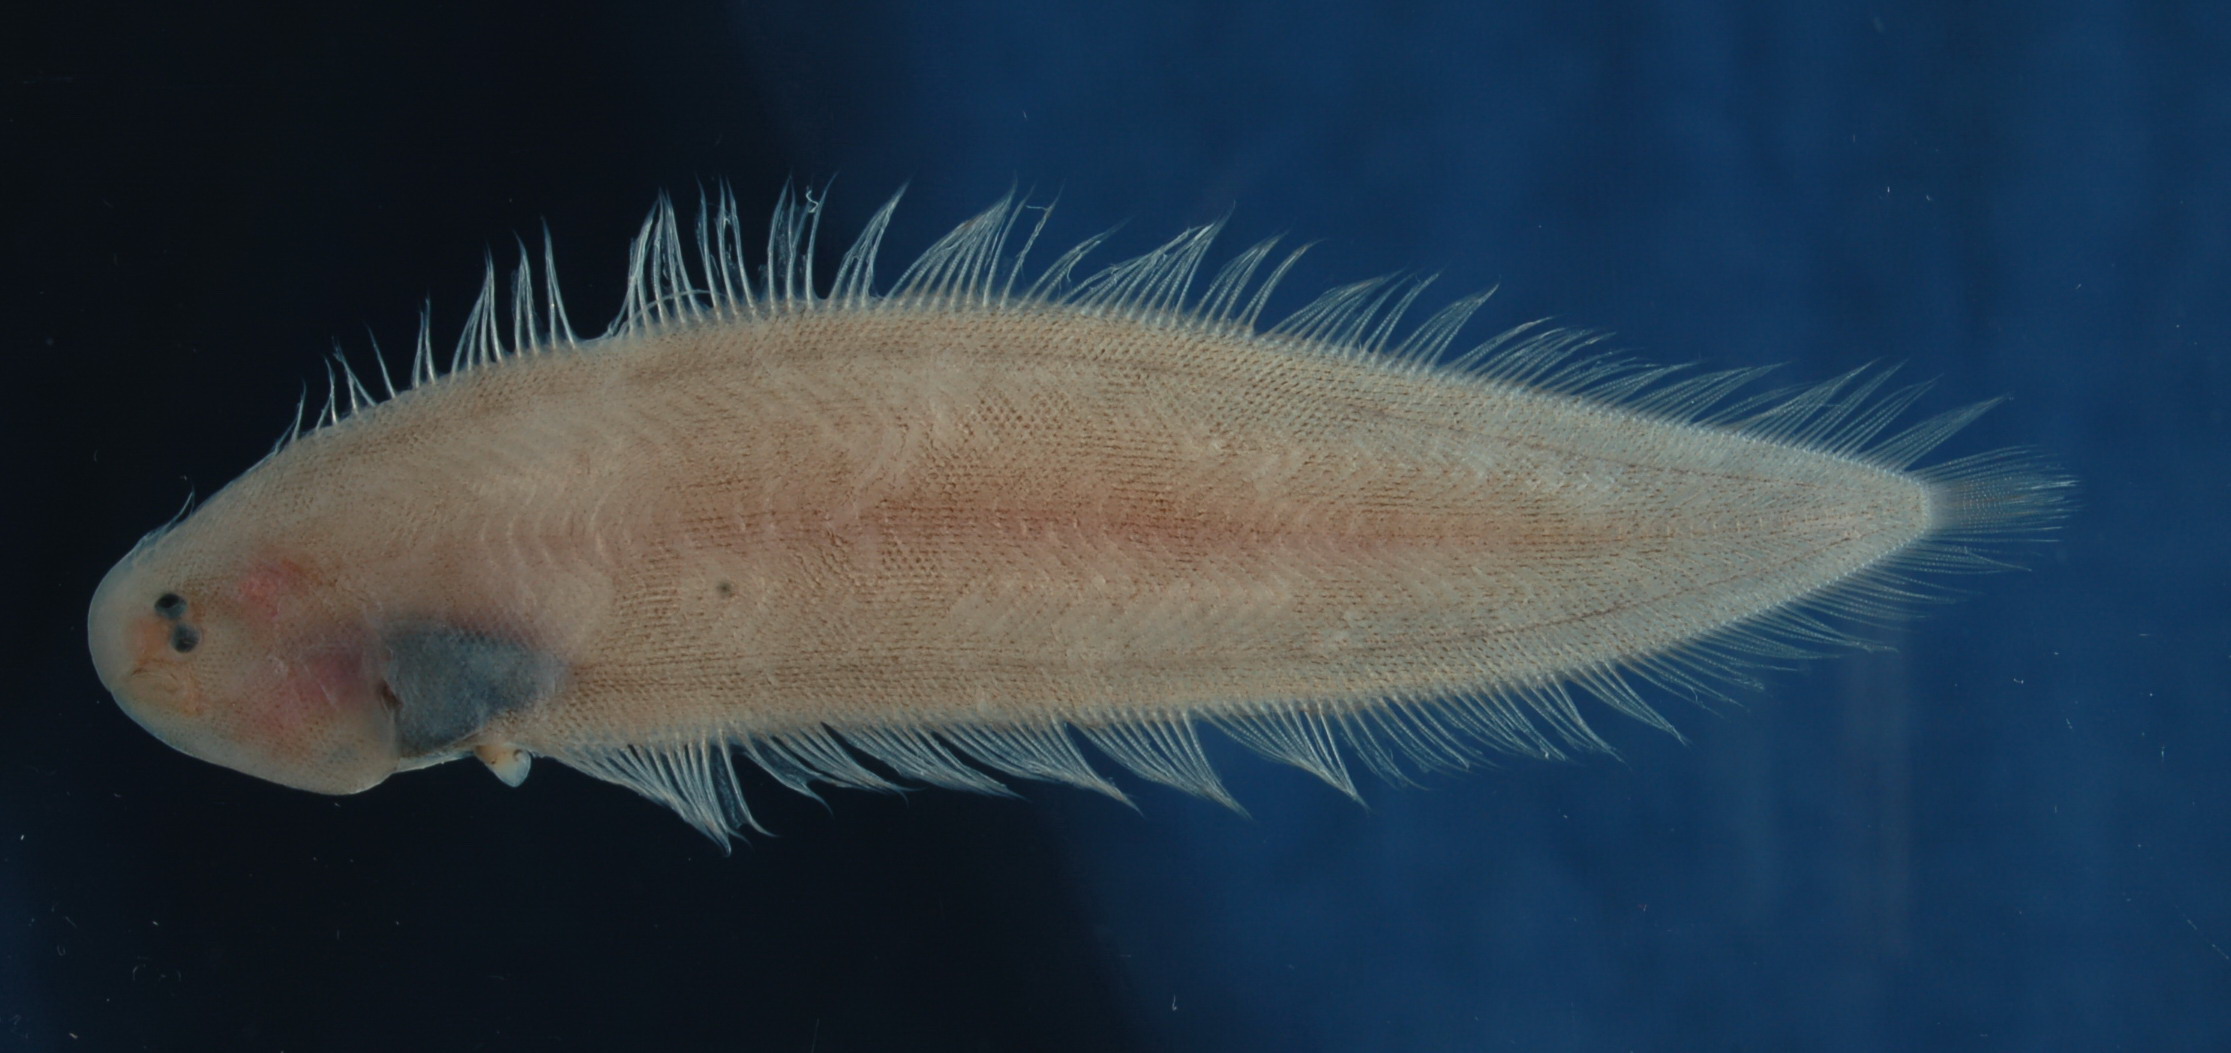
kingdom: Animalia
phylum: Chordata
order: Pleuronectiformes
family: Cynoglossidae
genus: Symphurus
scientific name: Symphurus strictus
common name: Blackbelly tonguesole
